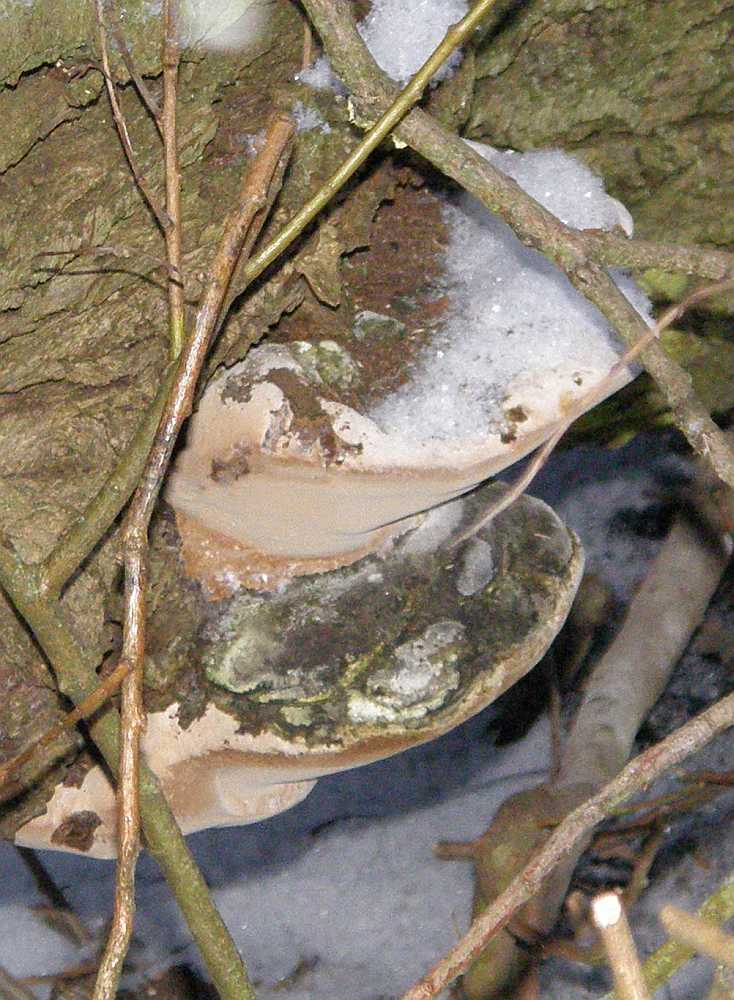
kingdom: Fungi
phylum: Basidiomycota
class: Agaricomycetes
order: Hymenochaetales
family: Hymenochaetaceae
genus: Phellinus
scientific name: Phellinus igniarius
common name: almindelig ildporesvamp
